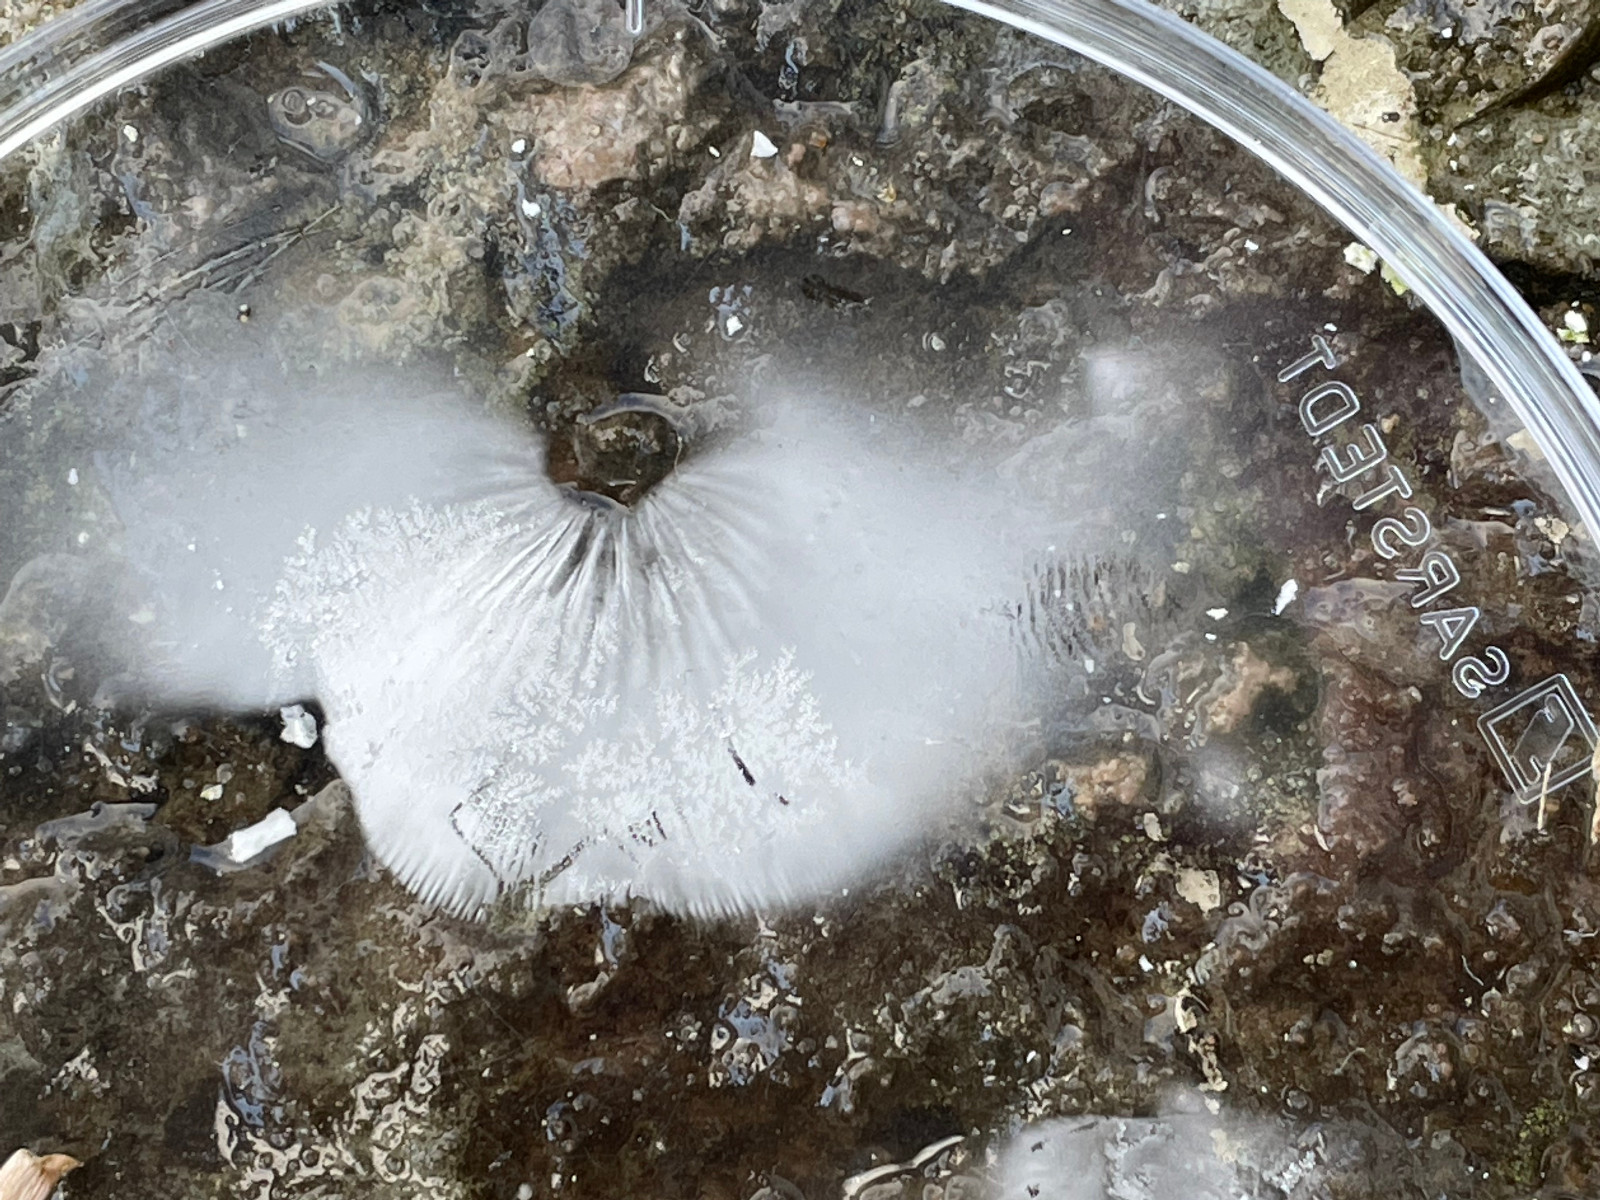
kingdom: Fungi
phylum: Basidiomycota
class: Agaricomycetes
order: Agaricales
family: Tricholomataceae
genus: Clitocybe
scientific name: Clitocybe
